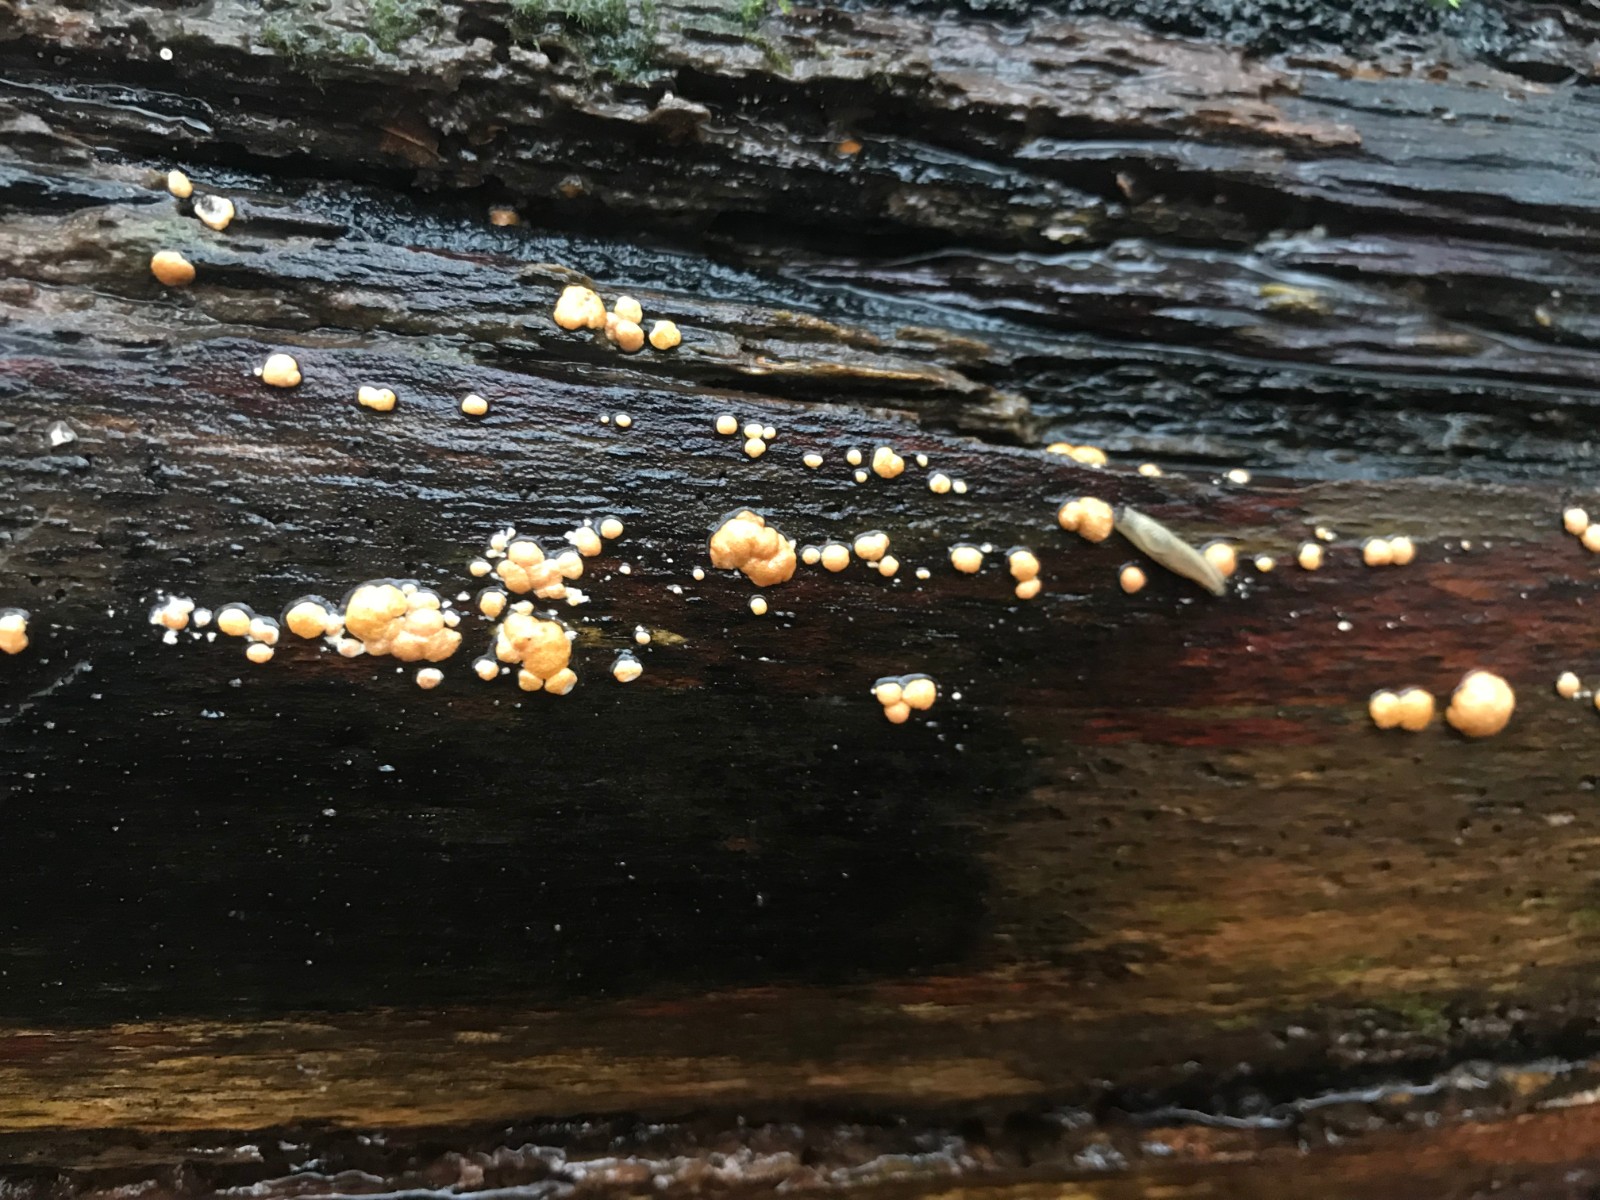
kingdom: Fungi
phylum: Ascomycota
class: Sordariomycetes
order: Hypocreales
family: Hypocreaceae
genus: Trichoderma
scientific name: Trichoderma europaeum
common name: rosabrun kødkerne
